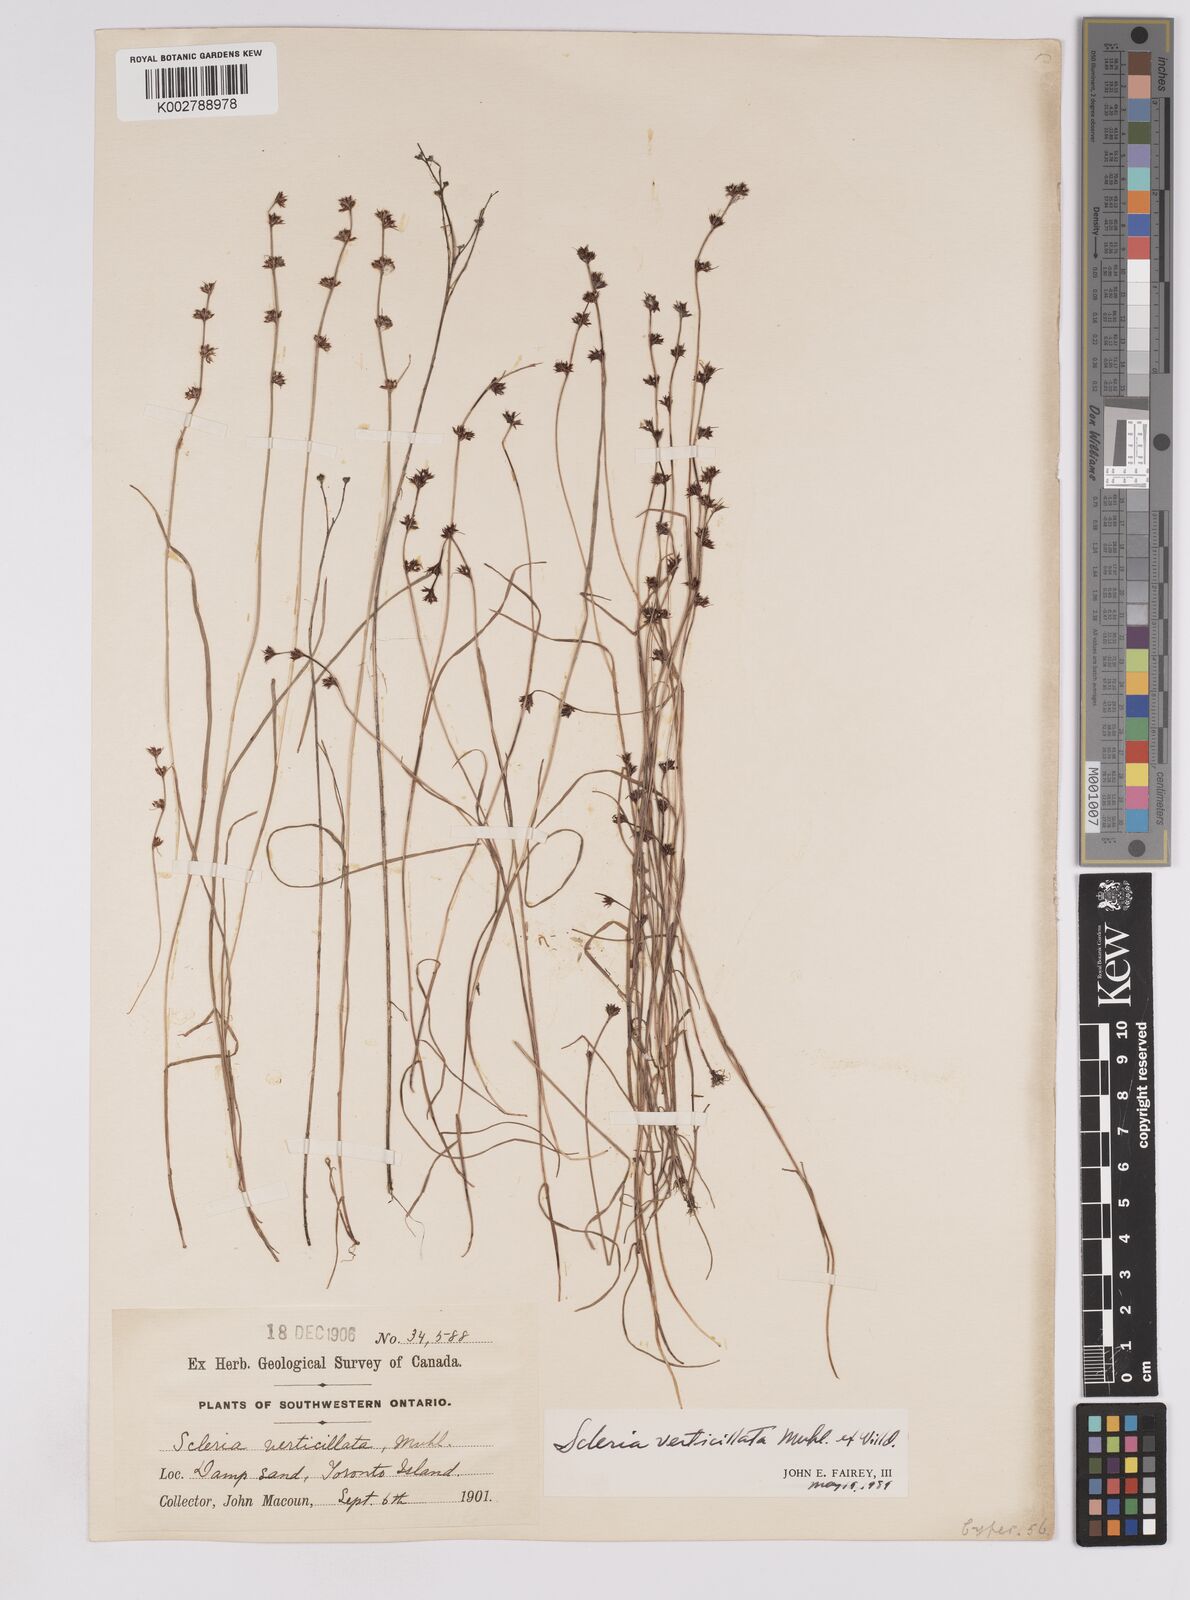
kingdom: Plantae
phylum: Tracheophyta
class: Liliopsida
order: Poales
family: Cyperaceae
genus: Scleria
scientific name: Scleria verticillata
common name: Low nutrush
